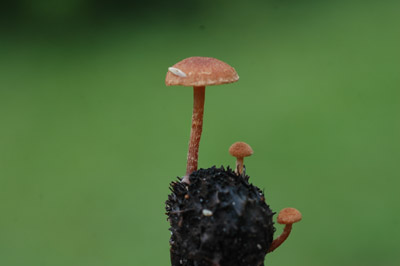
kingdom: Fungi
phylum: Basidiomycota
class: Agaricomycetes
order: Agaricales
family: Tubariaceae
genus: Tubaria
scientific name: Tubaria conspersa
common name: bleg fnughat
